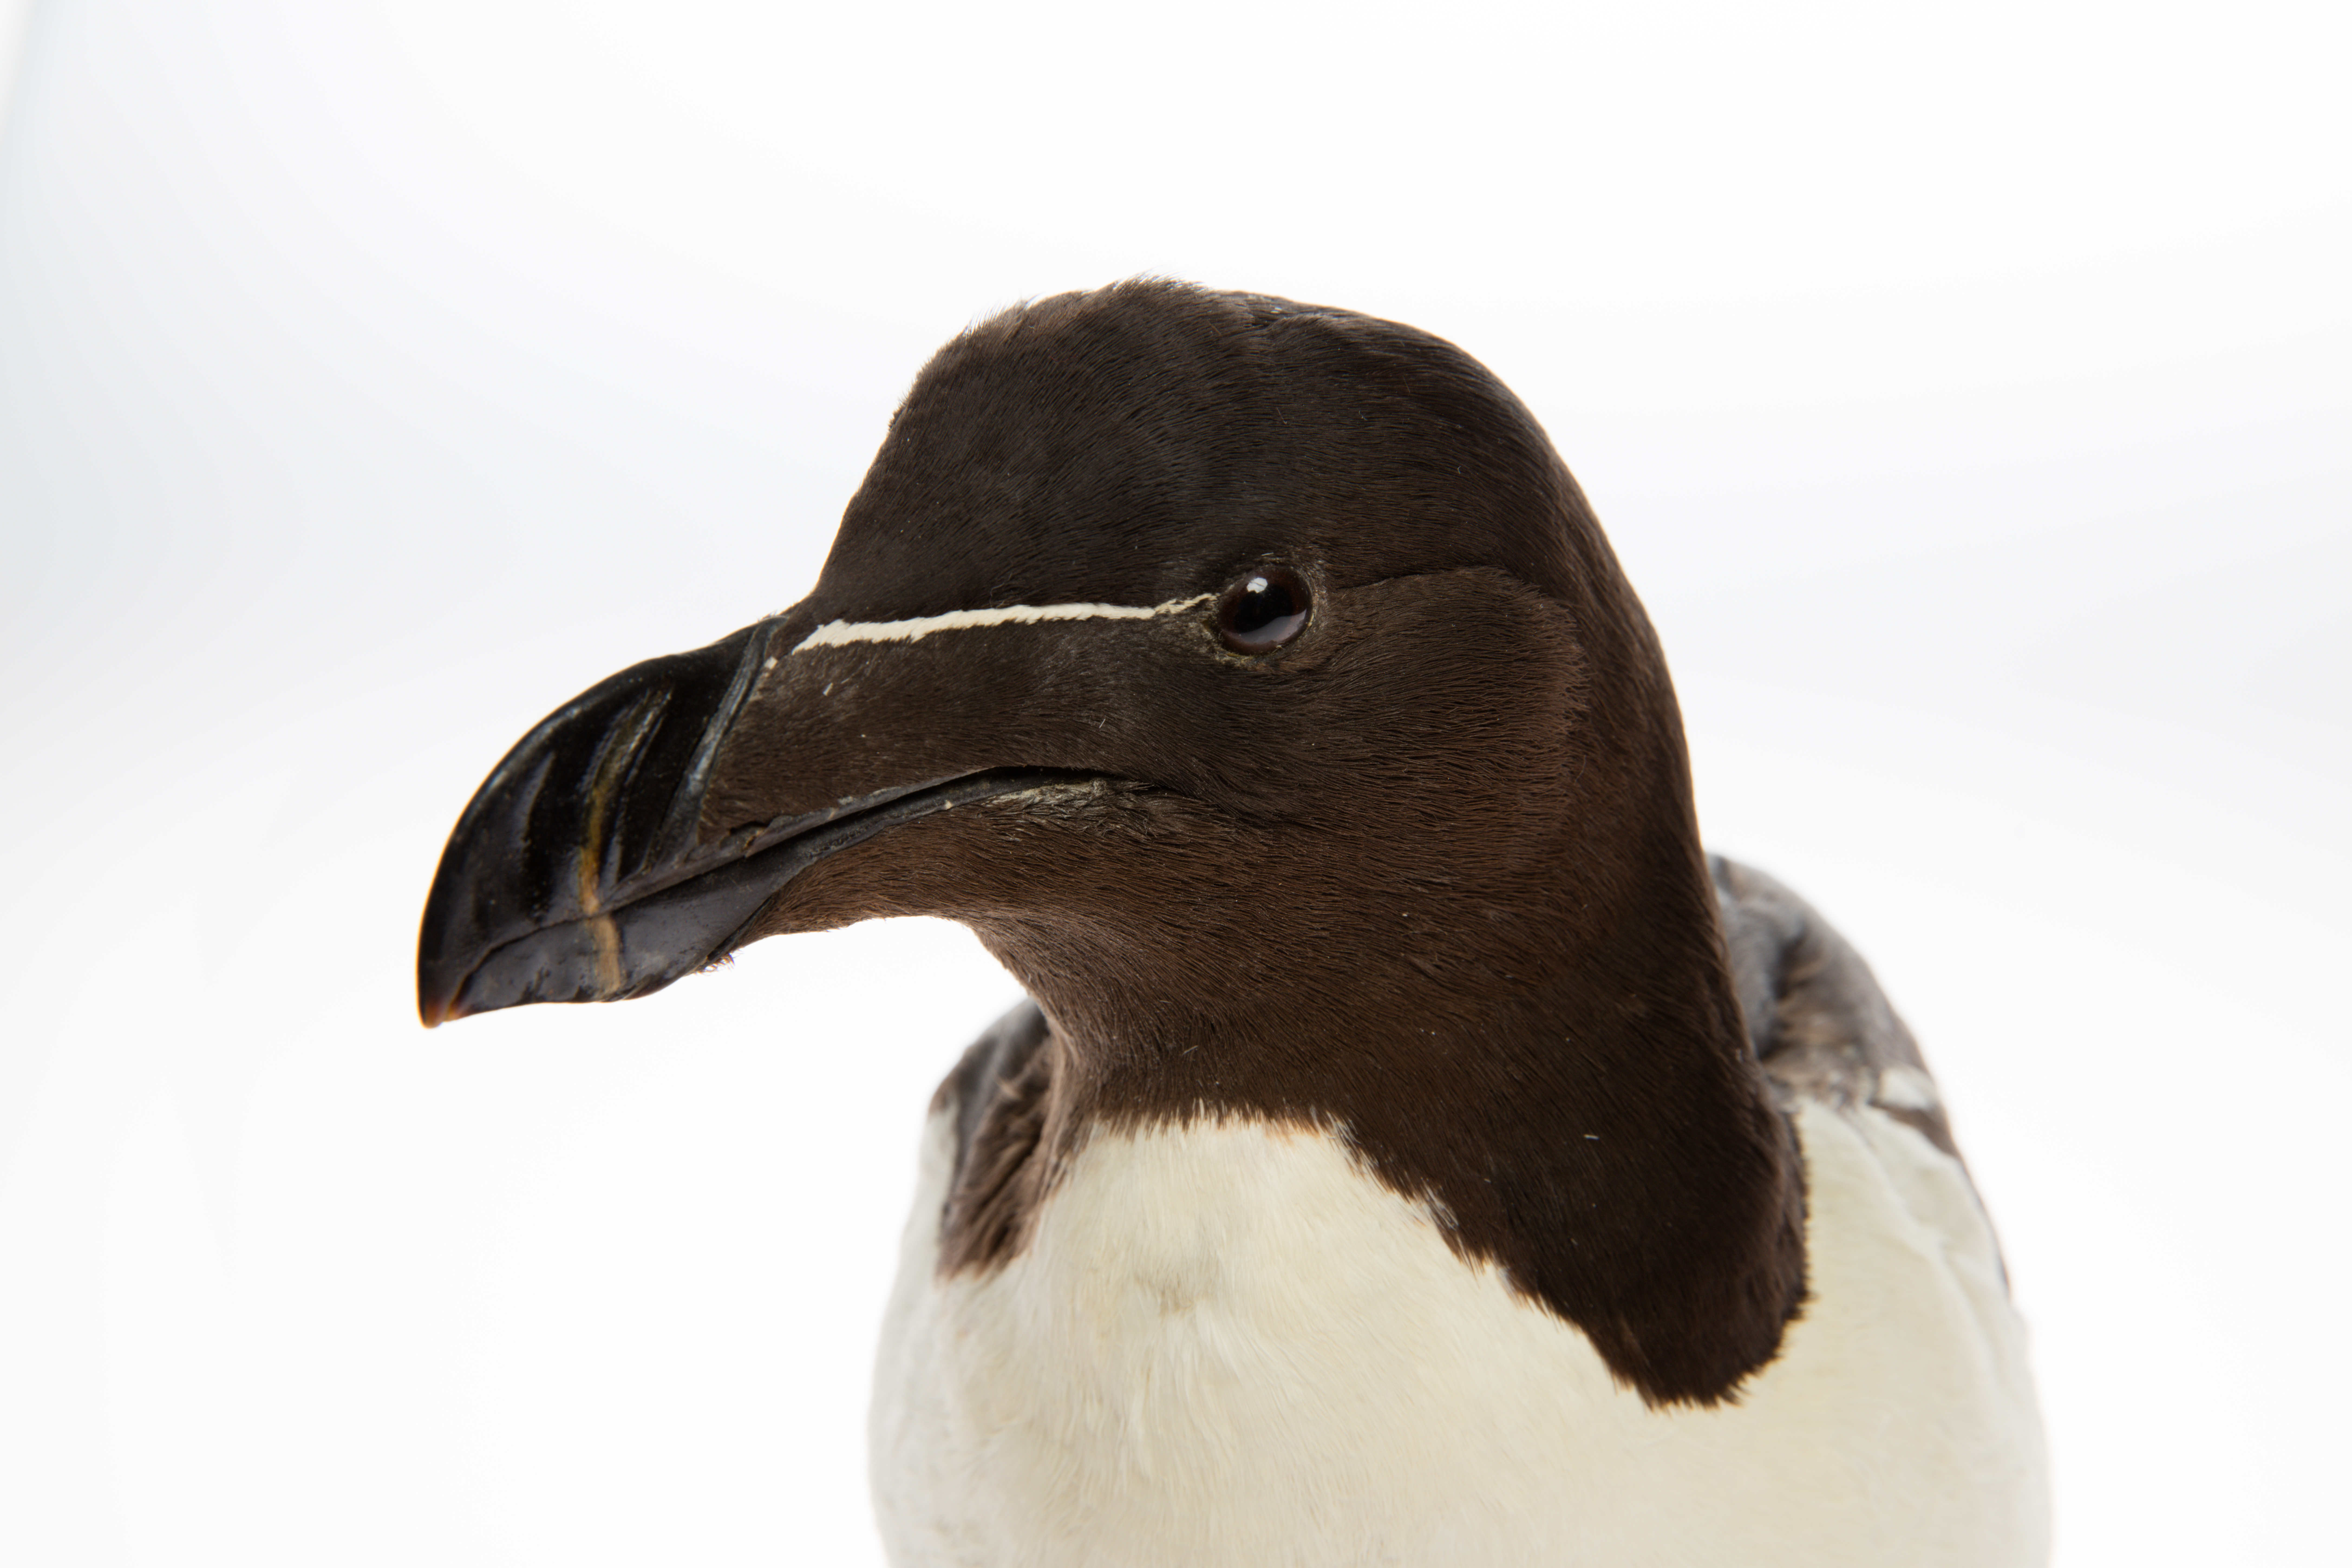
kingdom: Animalia
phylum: Chordata
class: Aves
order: Charadriiformes
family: Alcidae
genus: Alca
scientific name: Alca torda
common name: Razorbill
